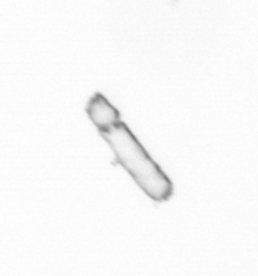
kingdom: Chromista
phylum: Ochrophyta
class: Bacillariophyceae
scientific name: Bacillariophyceae
